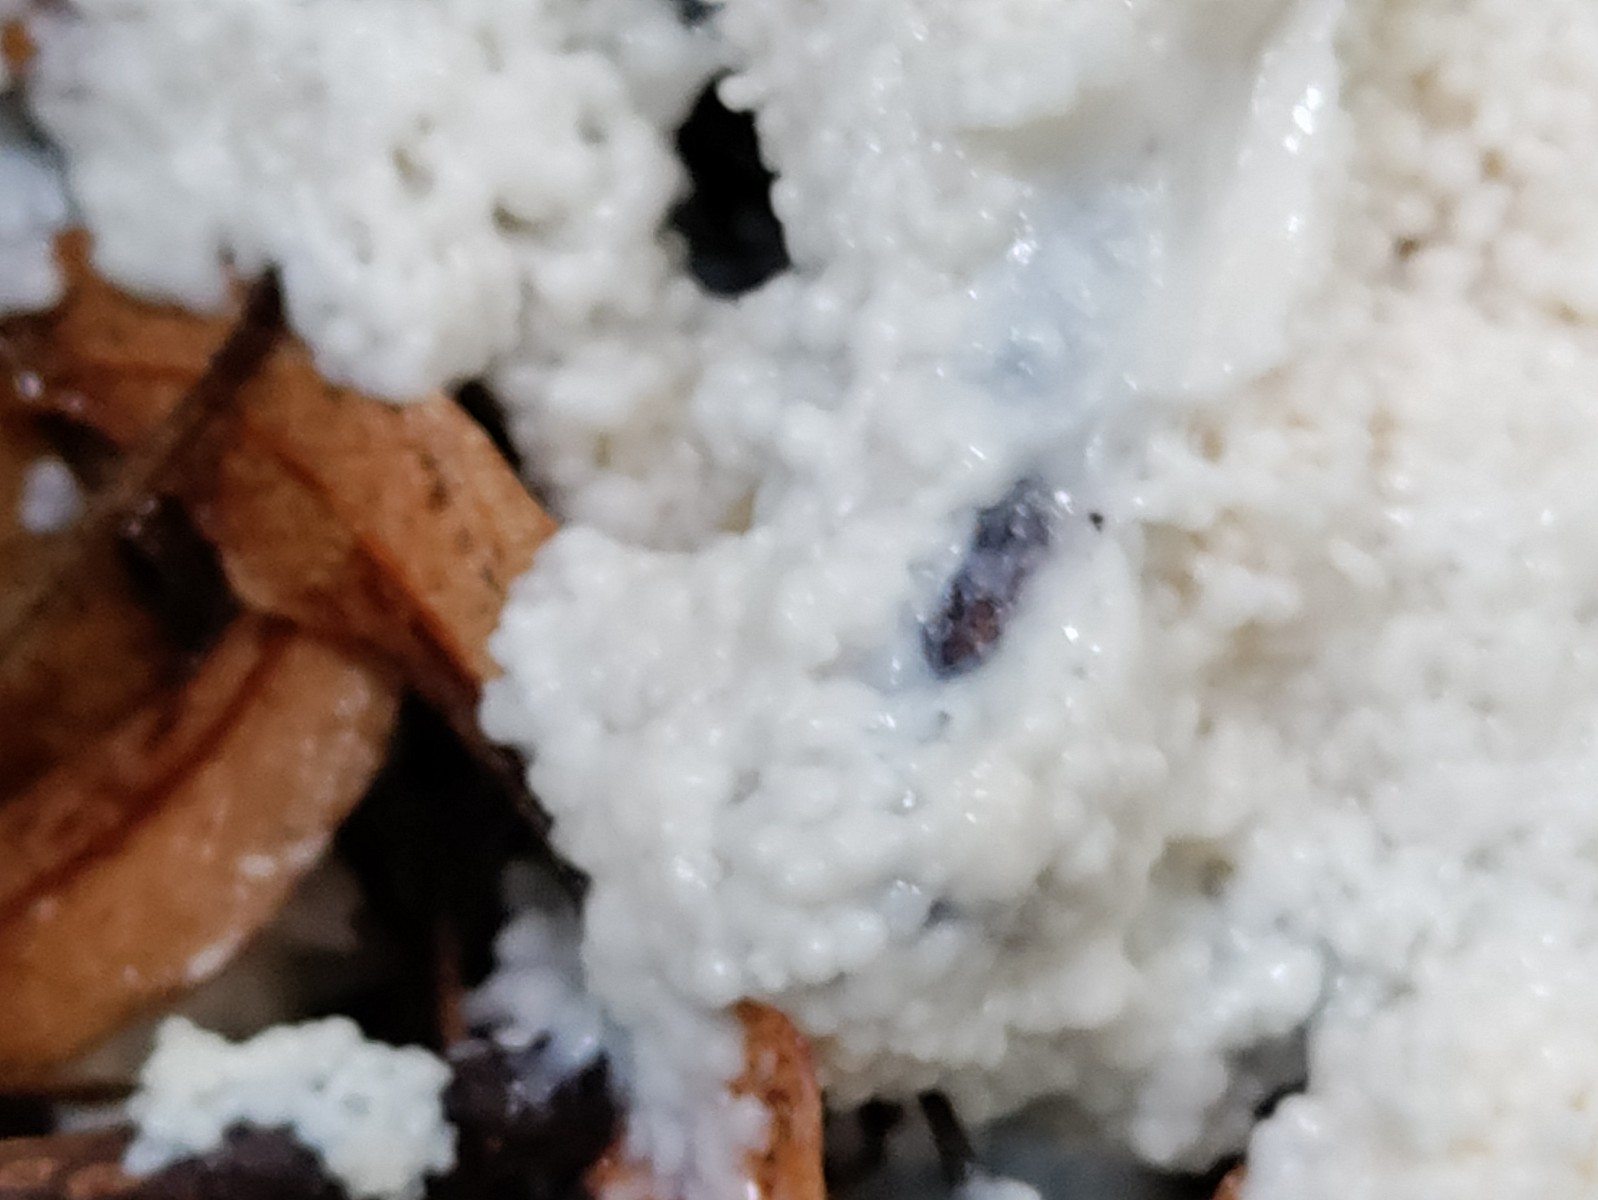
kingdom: Protozoa
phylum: Mycetozoa
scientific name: Mycetozoa
